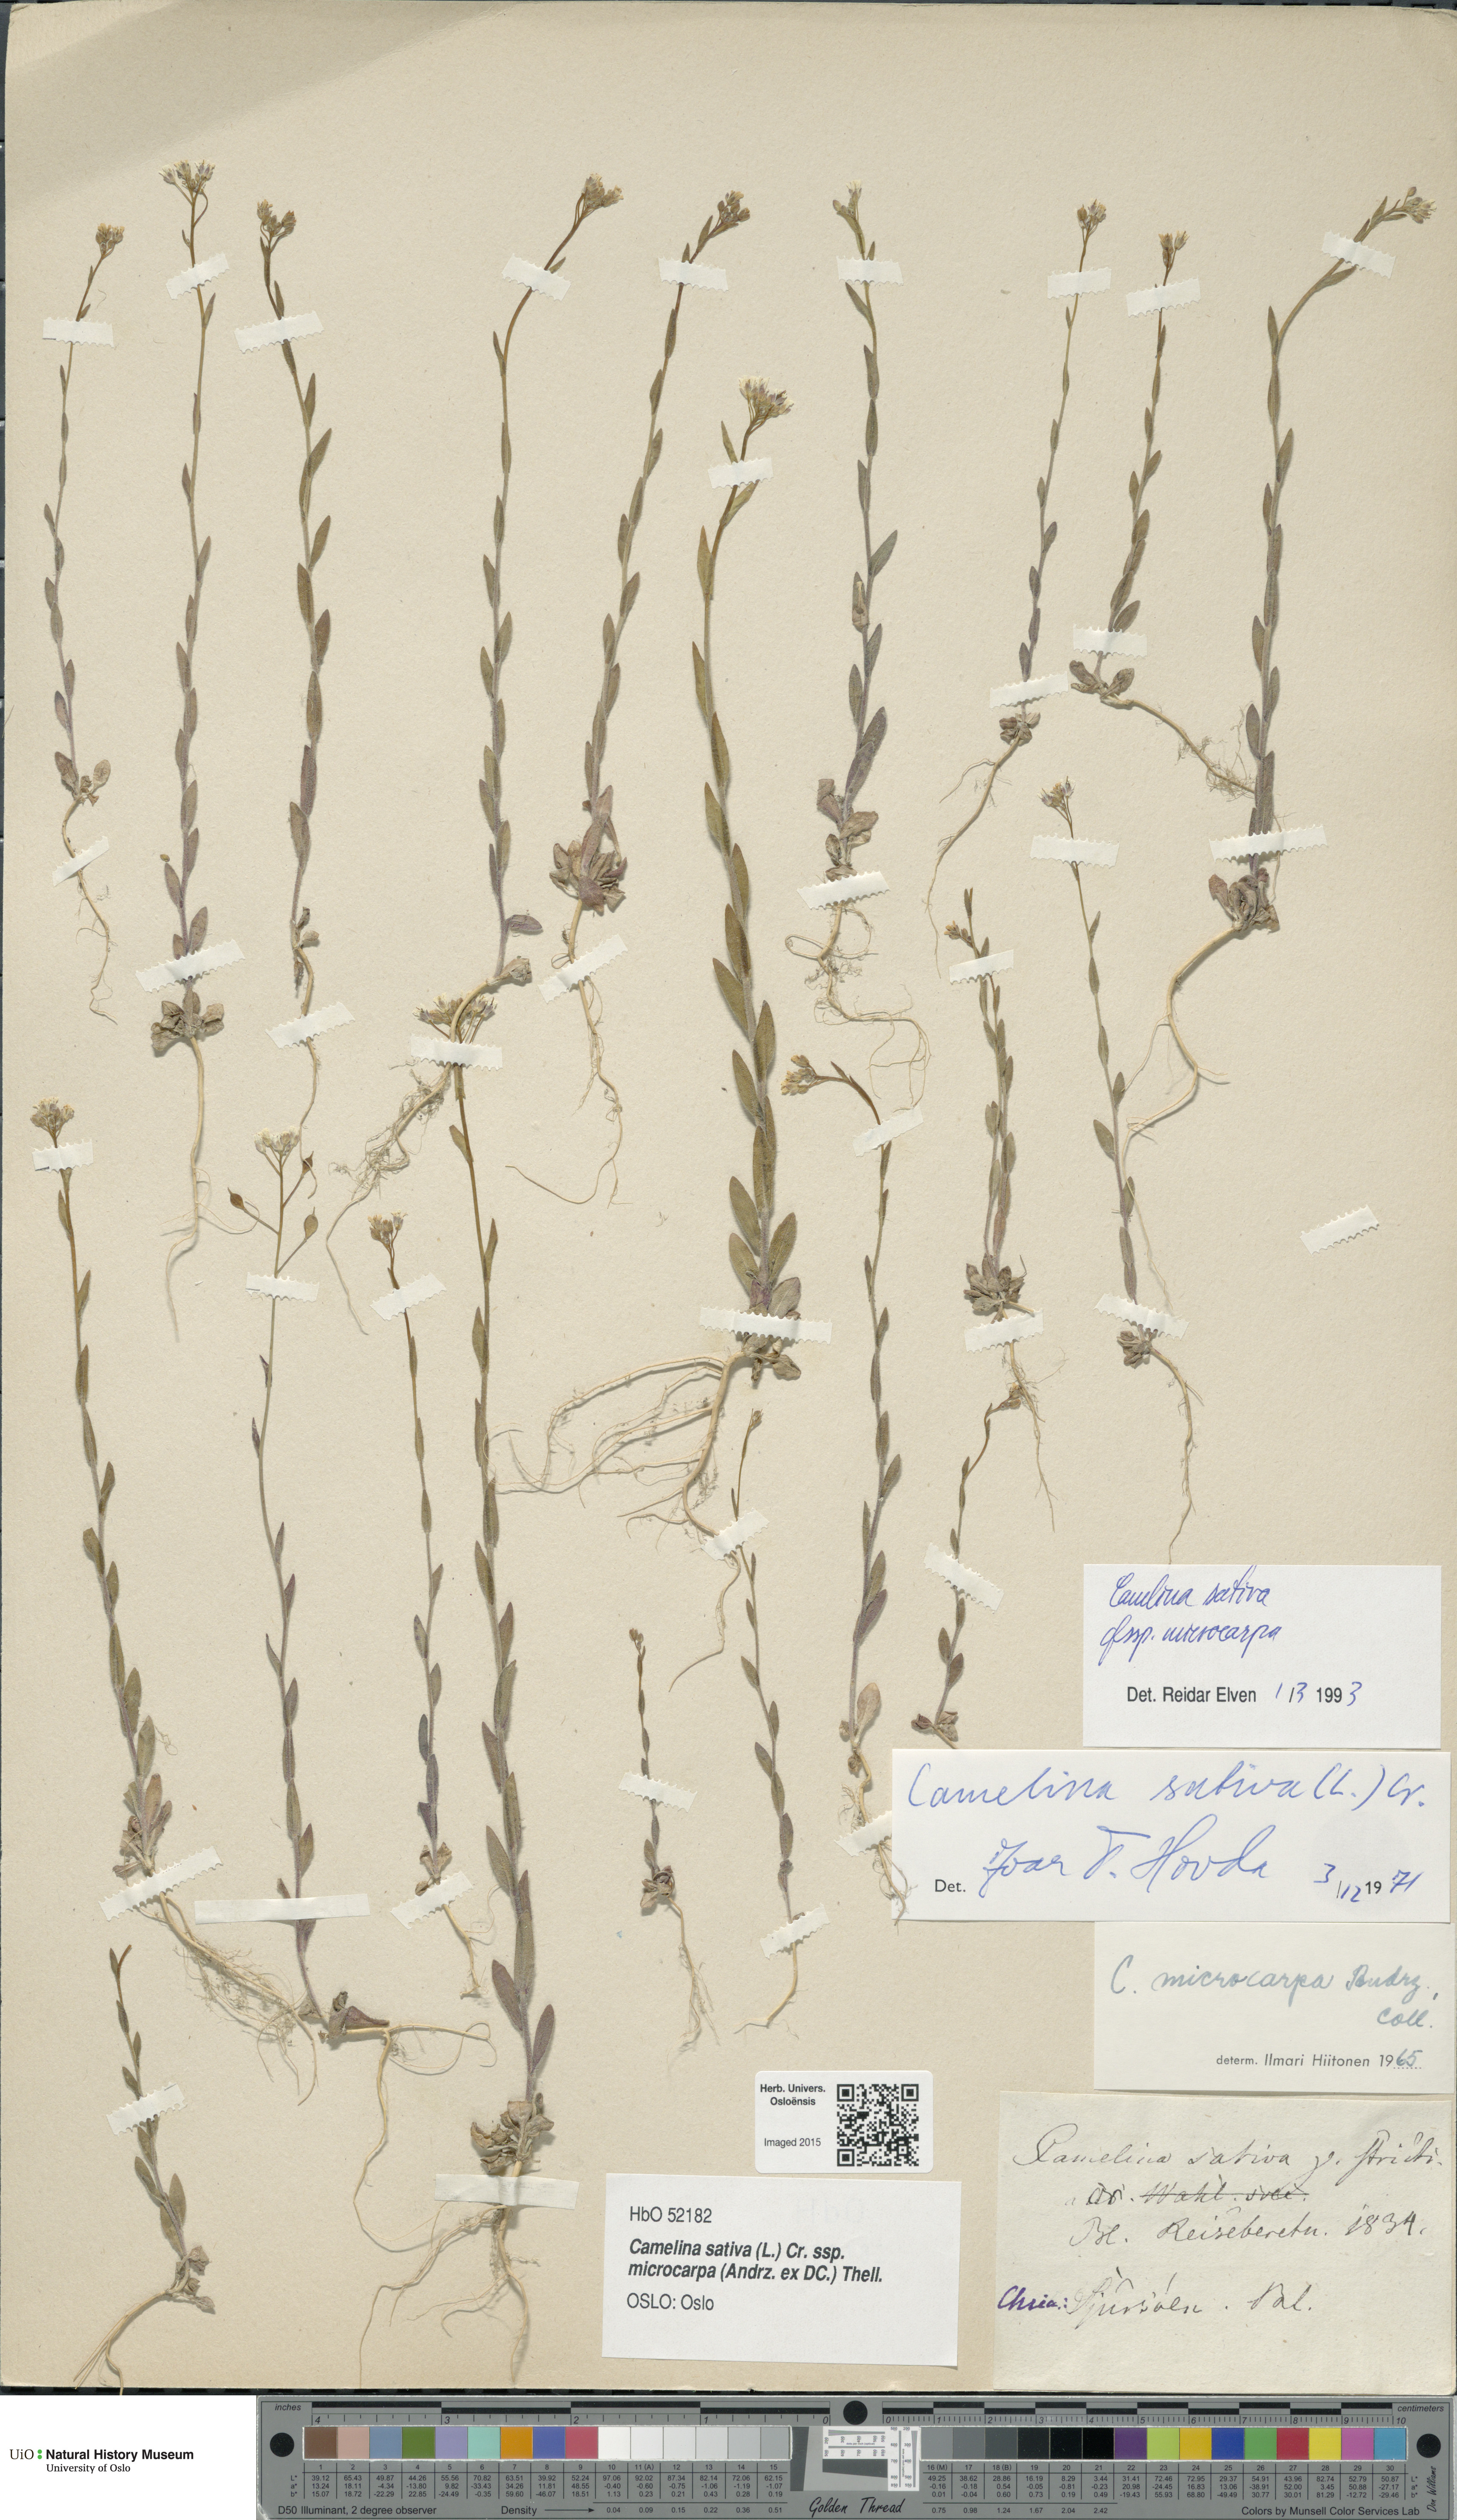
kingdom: Plantae
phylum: Tracheophyta
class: Magnoliopsida
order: Brassicales
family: Brassicaceae
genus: Camelina
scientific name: Camelina sativa
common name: Gold-of-pleasure
